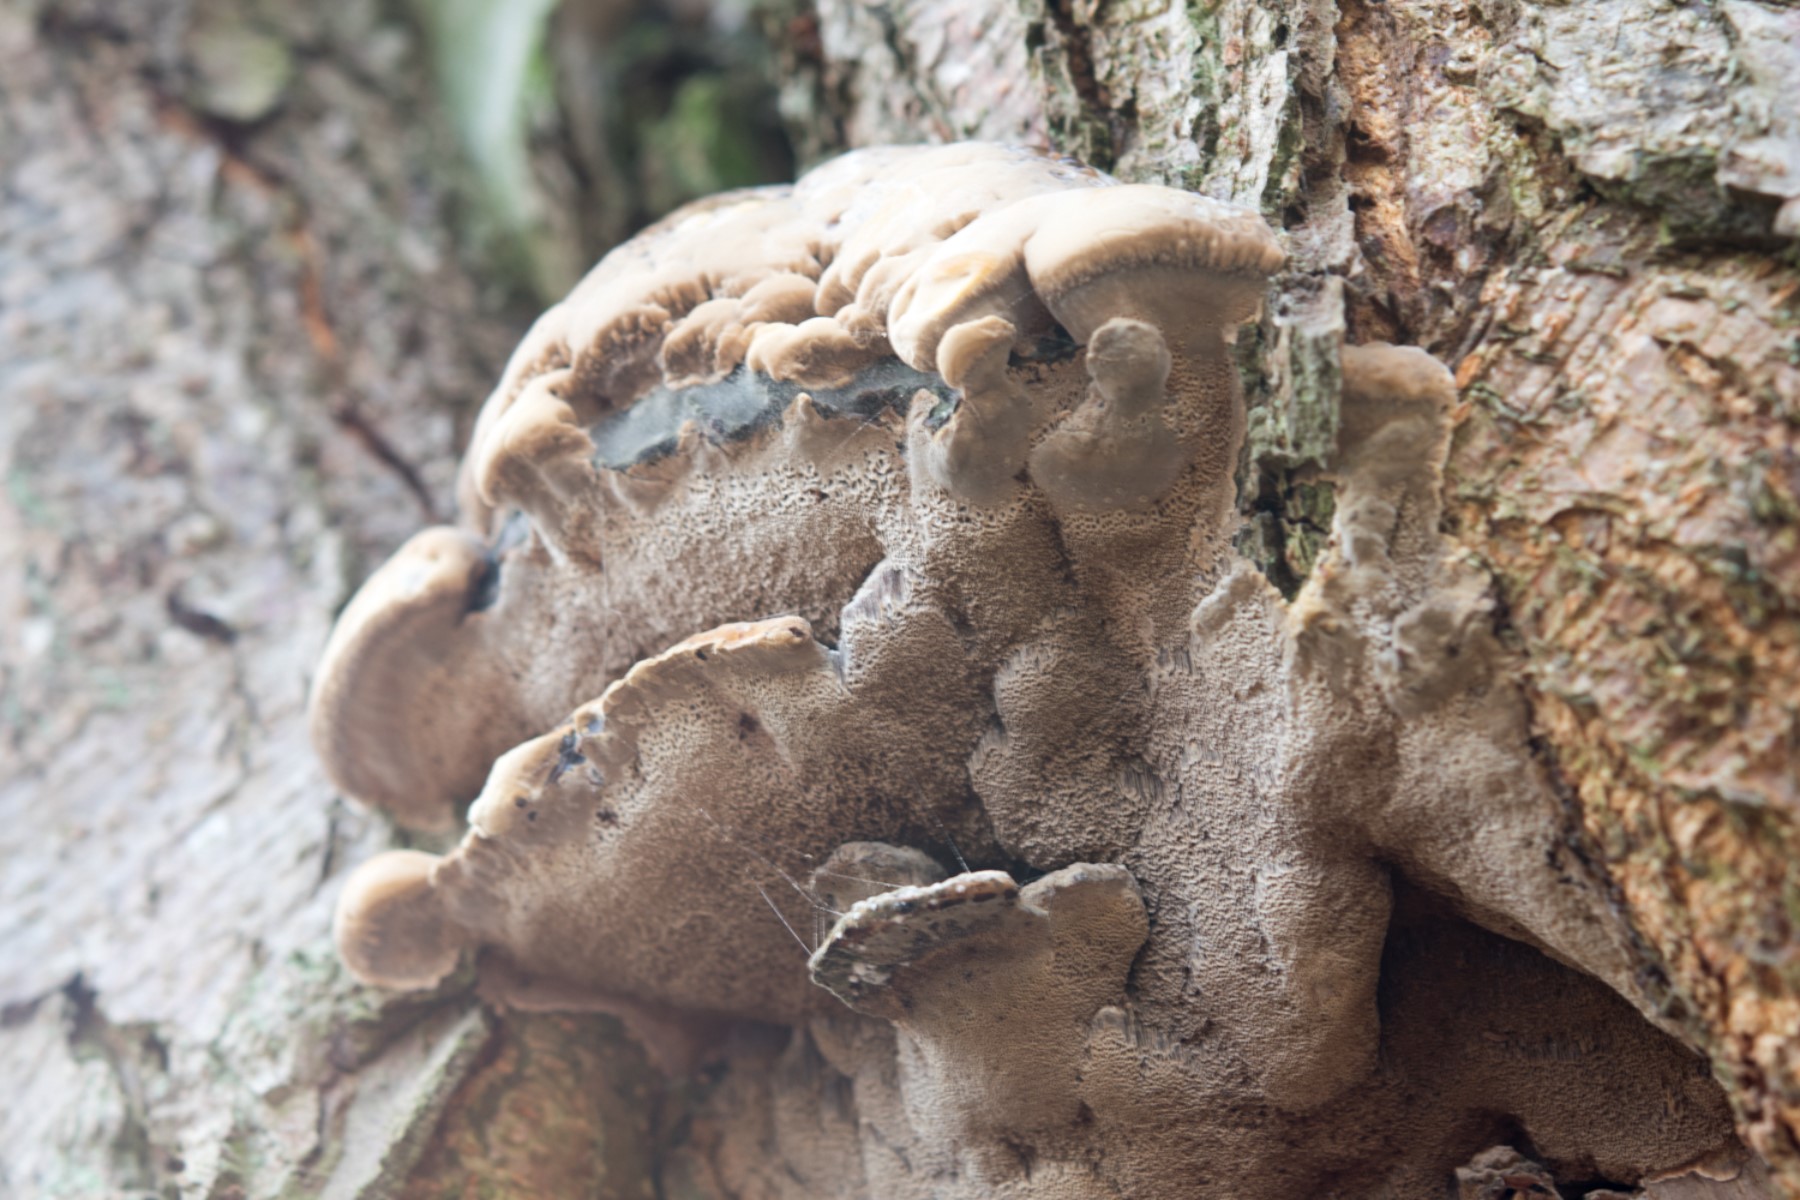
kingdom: Fungi
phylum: Basidiomycota
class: Agaricomycetes
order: Hymenochaetales
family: Hymenochaetaceae
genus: Xanthoporia
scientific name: Xanthoporia radiata
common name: elle-spejlporesvamp
